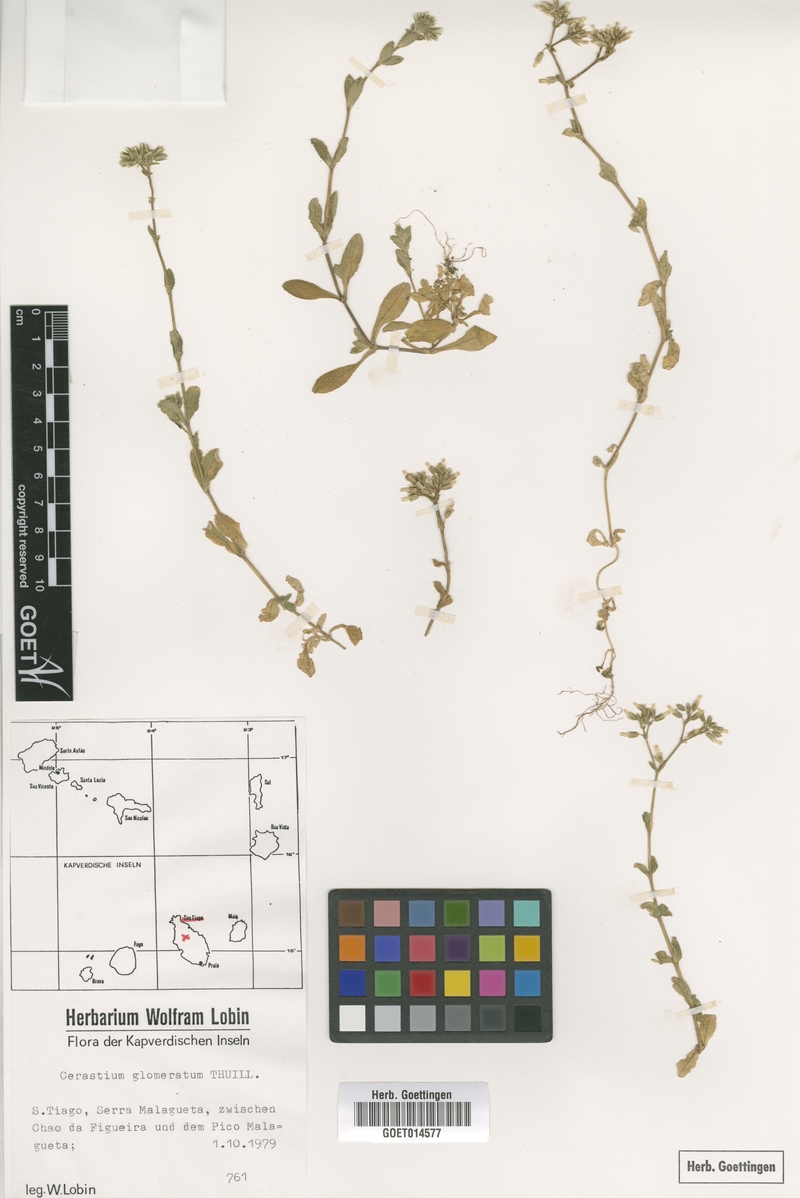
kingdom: Plantae
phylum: Tracheophyta
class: Magnoliopsida
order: Caryophyllales
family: Caryophyllaceae
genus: Cerastium
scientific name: Cerastium glomeratum
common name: Sticky chickweed
